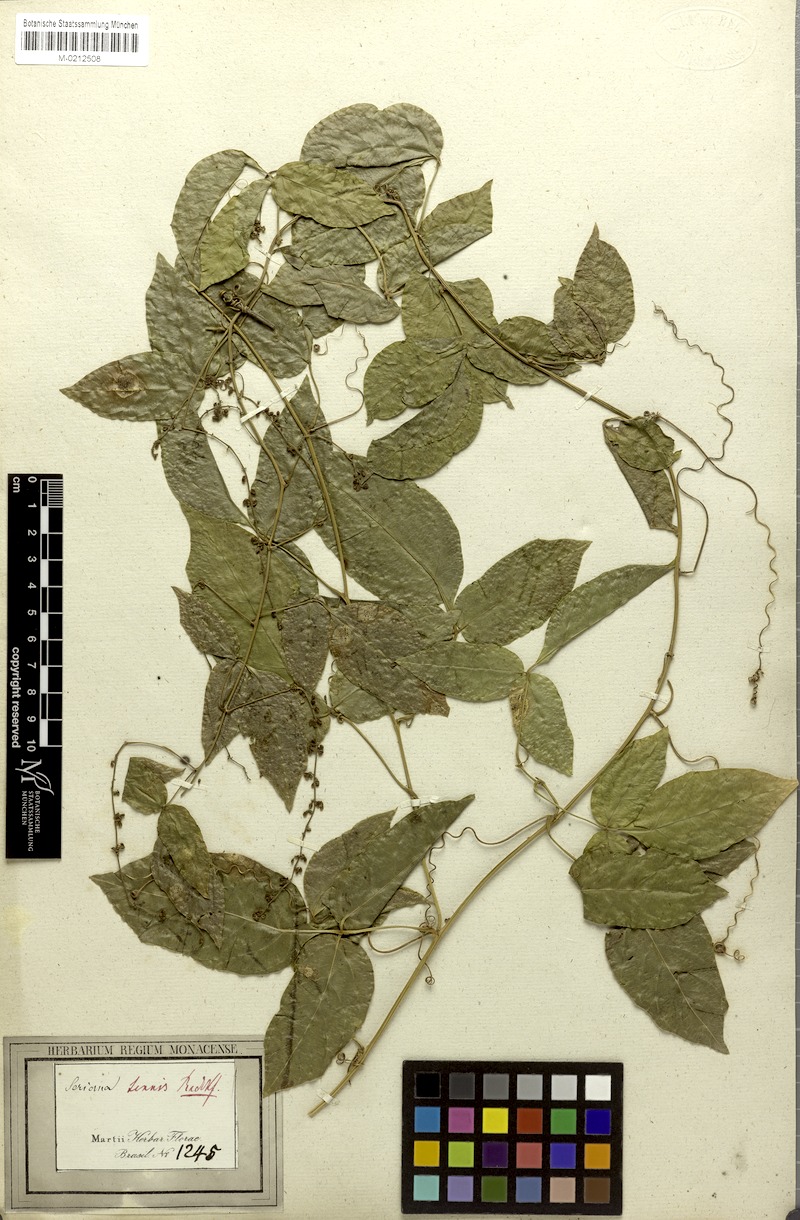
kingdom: Plantae
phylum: Tracheophyta
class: Magnoliopsida
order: Sapindales
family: Sapindaceae
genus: Serjania
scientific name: Serjania tenuis
